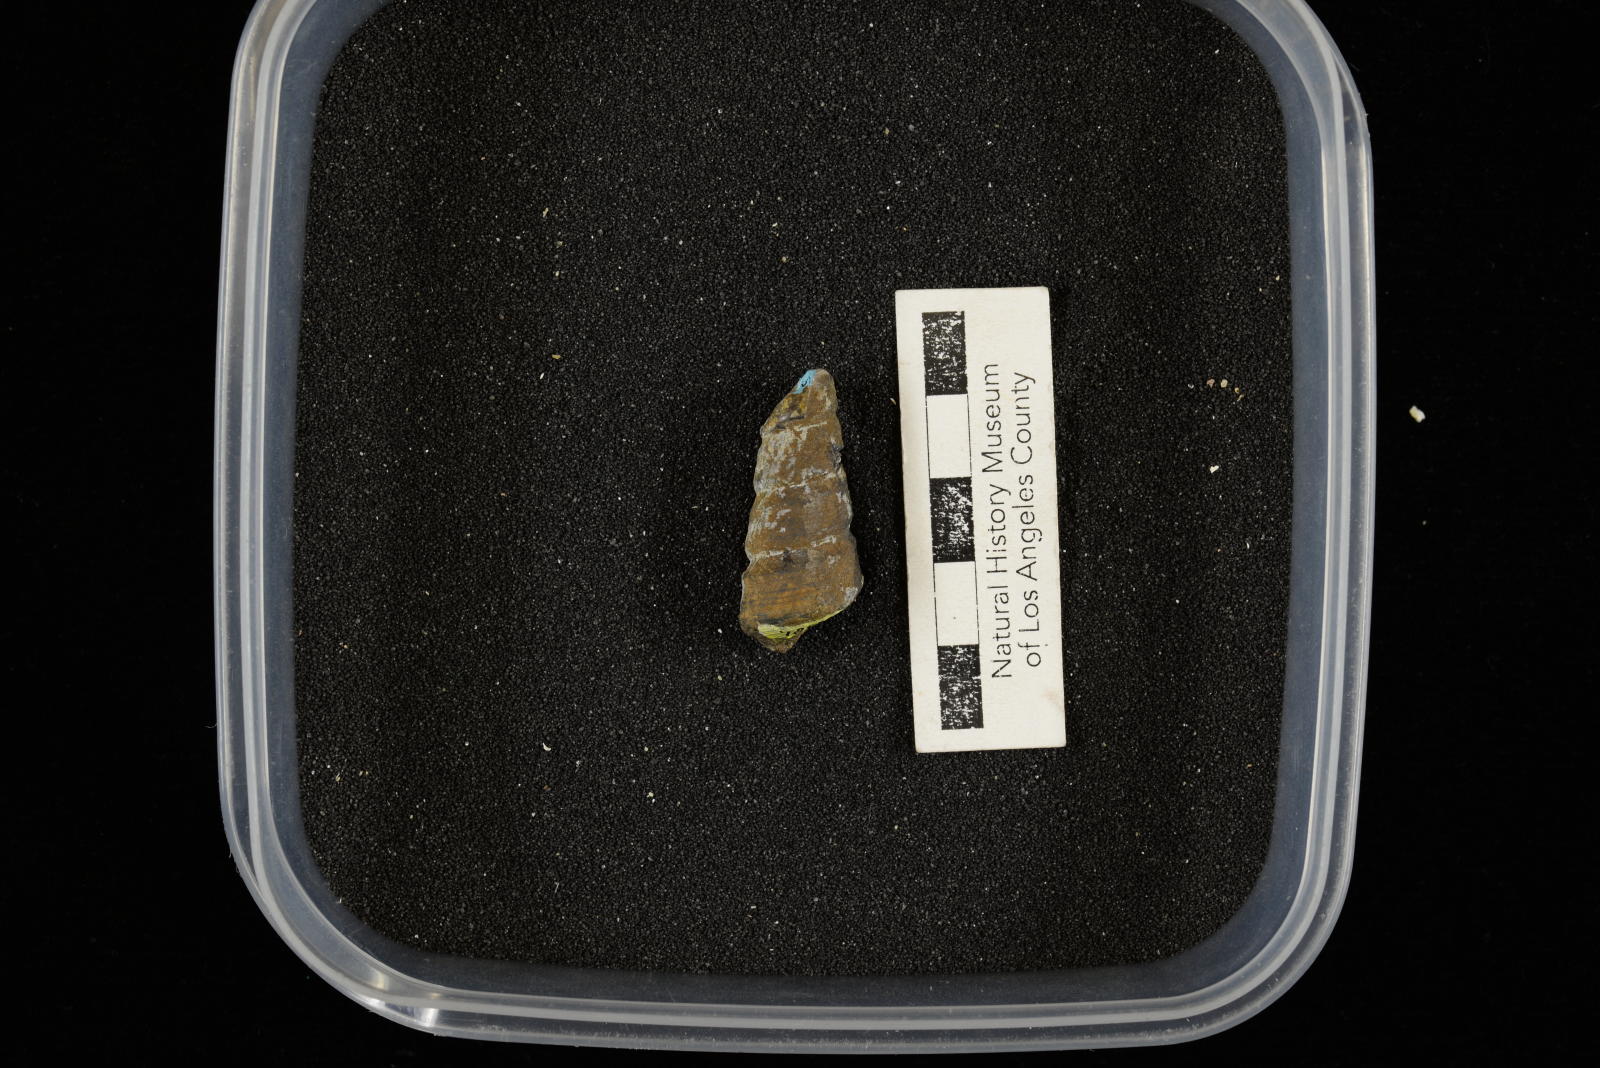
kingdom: Animalia
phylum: Mollusca
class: Gastropoda
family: Turritellidae
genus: Turritella
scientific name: Turritella chaneyi
